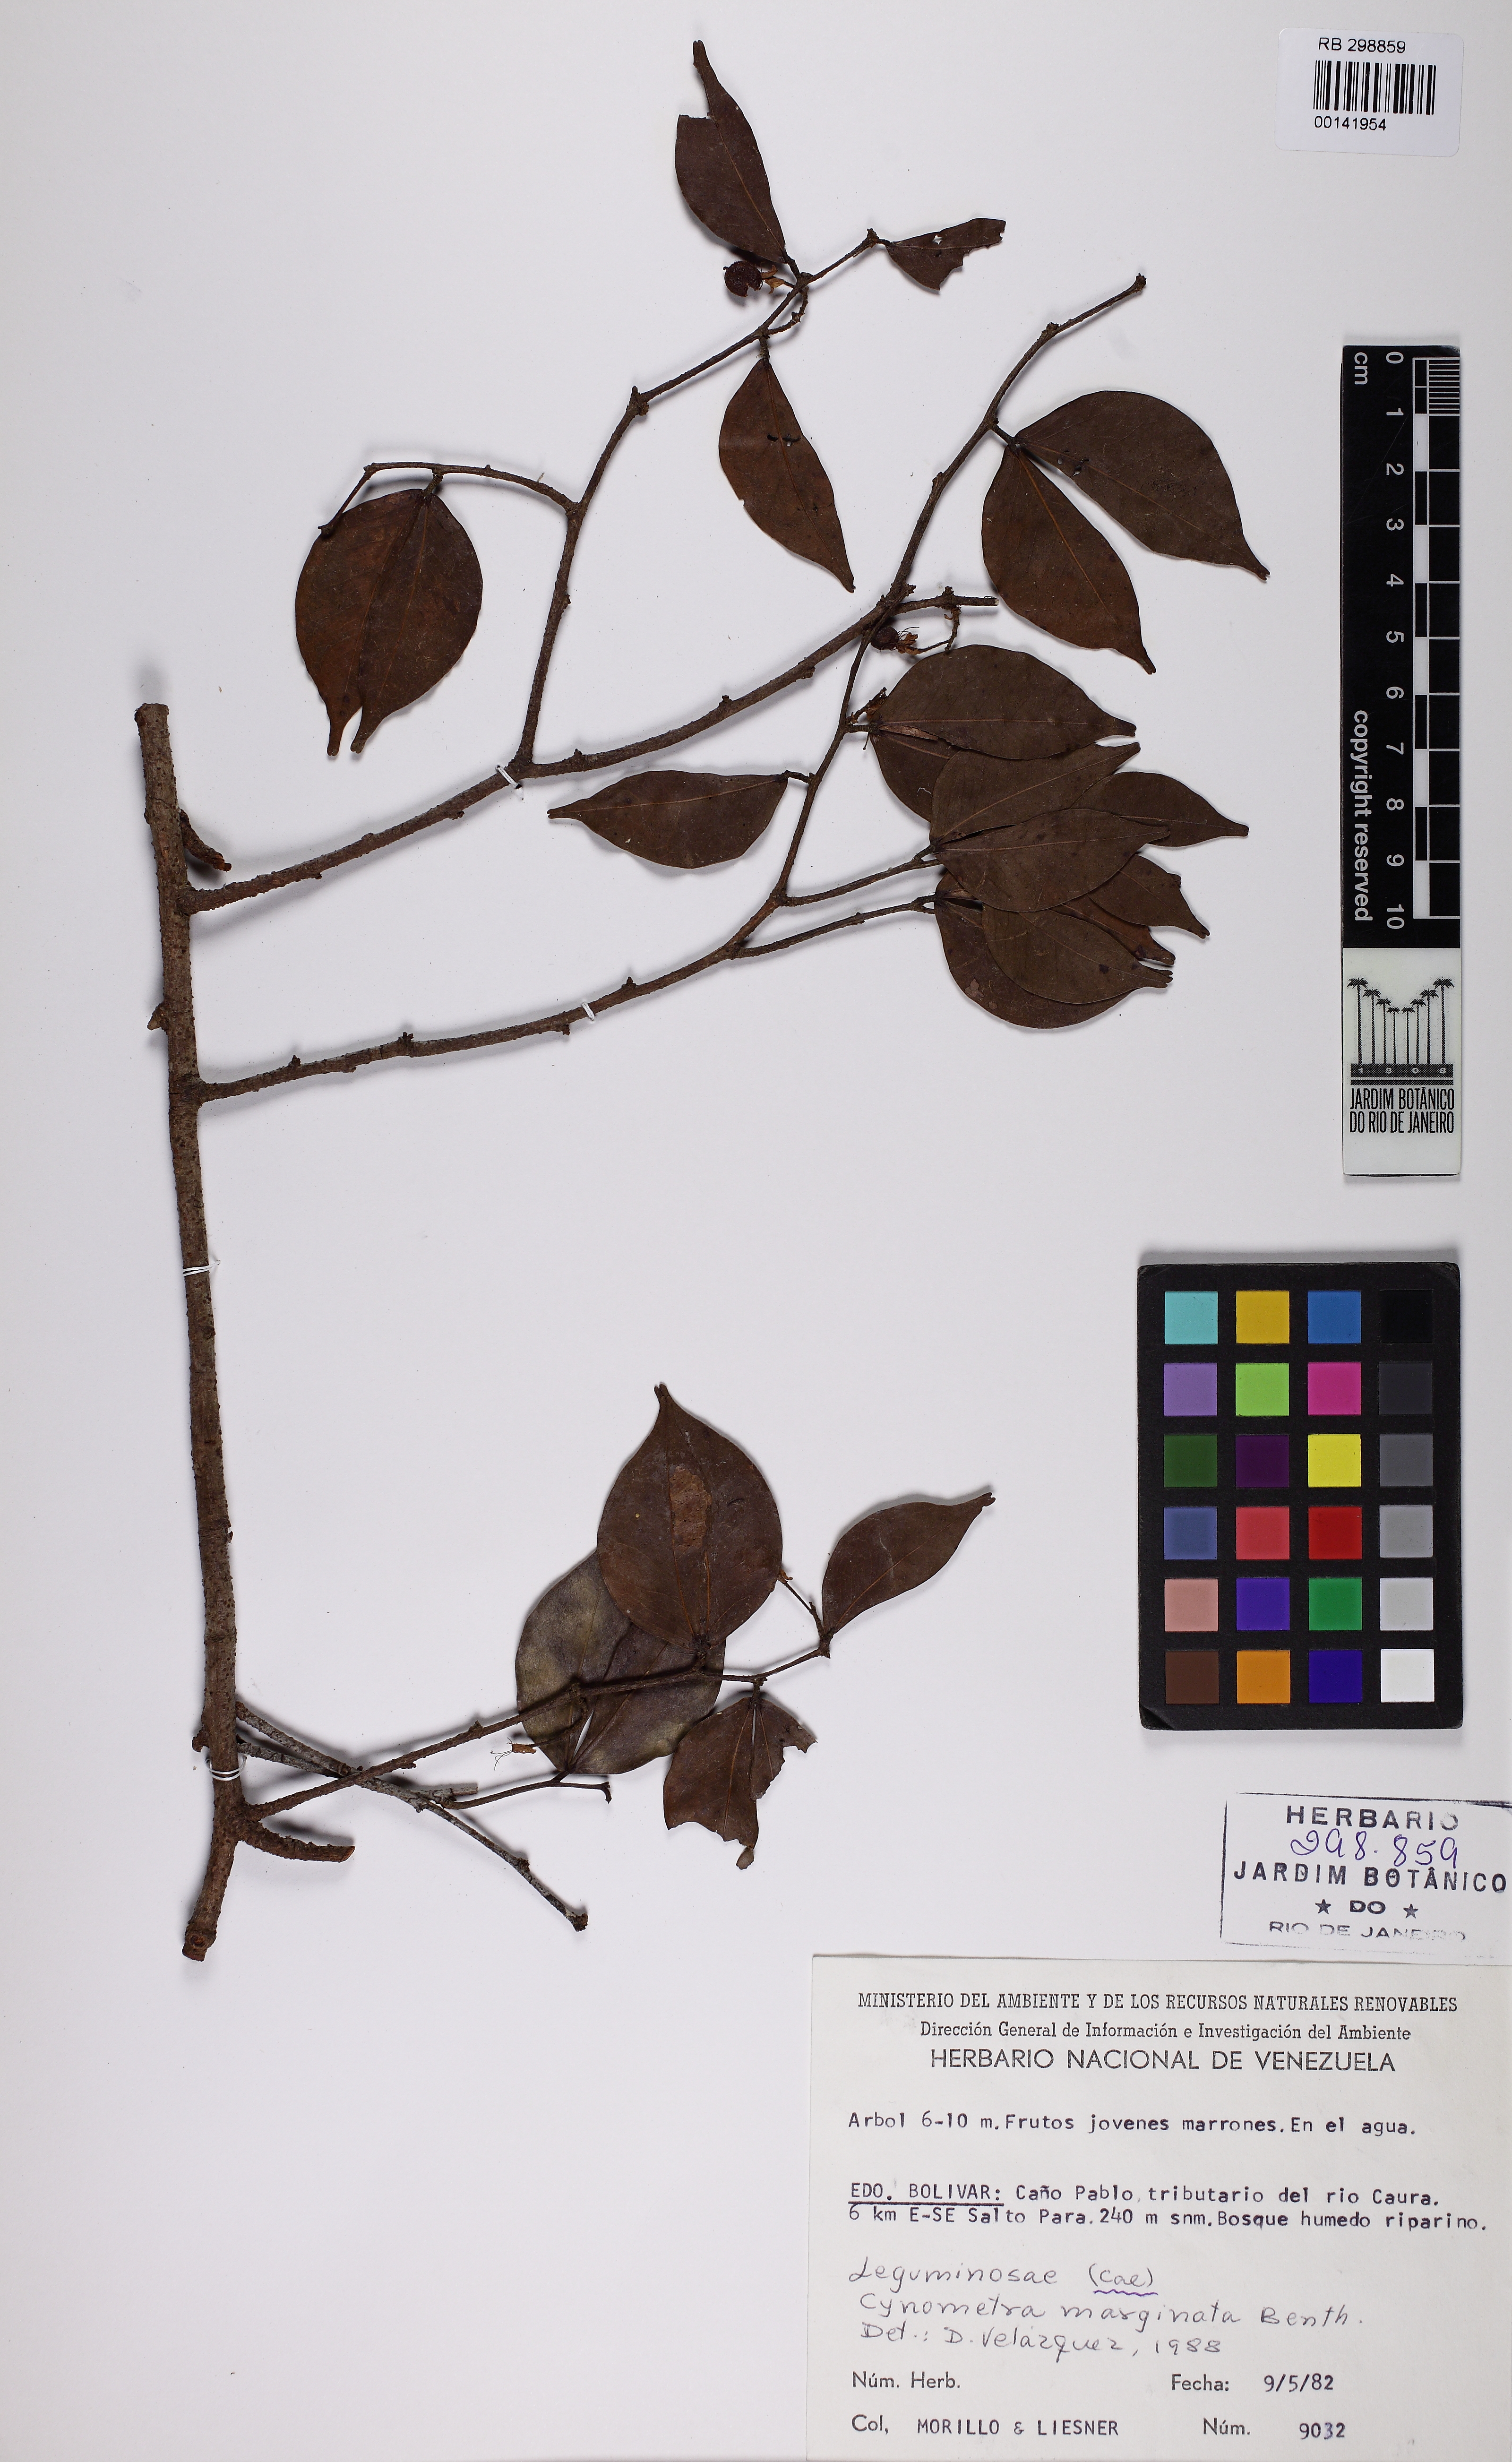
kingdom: Plantae
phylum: Tracheophyta
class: Magnoliopsida
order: Fabales
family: Fabaceae
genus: Cynometra
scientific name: Cynometra marginata
